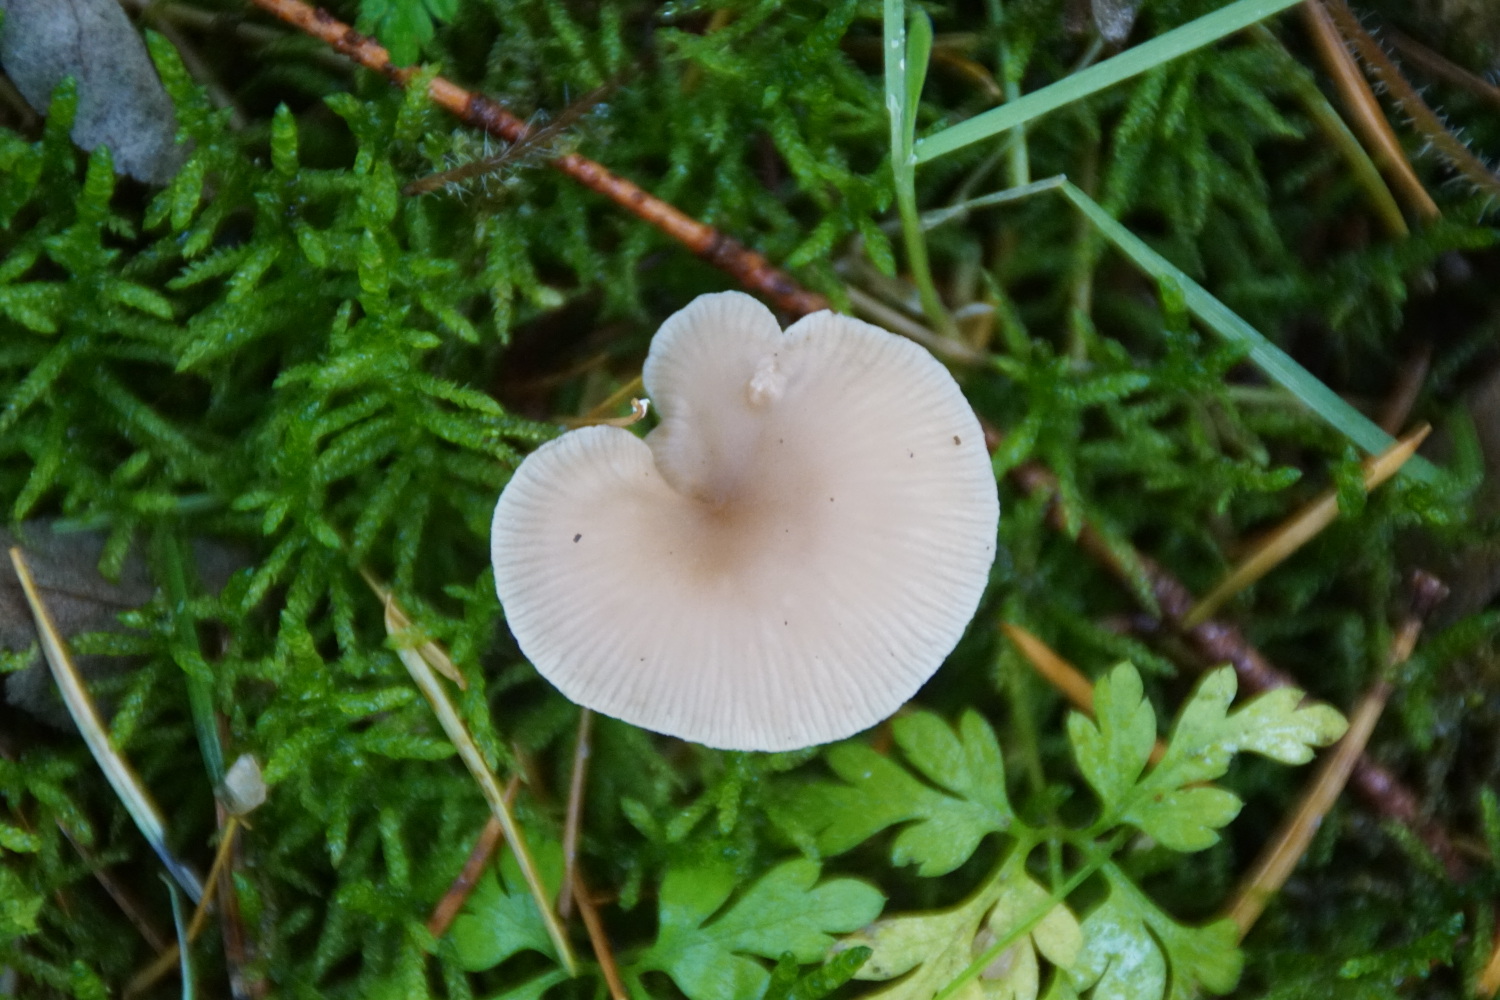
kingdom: Fungi
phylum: Basidiomycota
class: Agaricomycetes
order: Agaricales
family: Tricholomataceae
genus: Clitocybe
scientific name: Clitocybe
